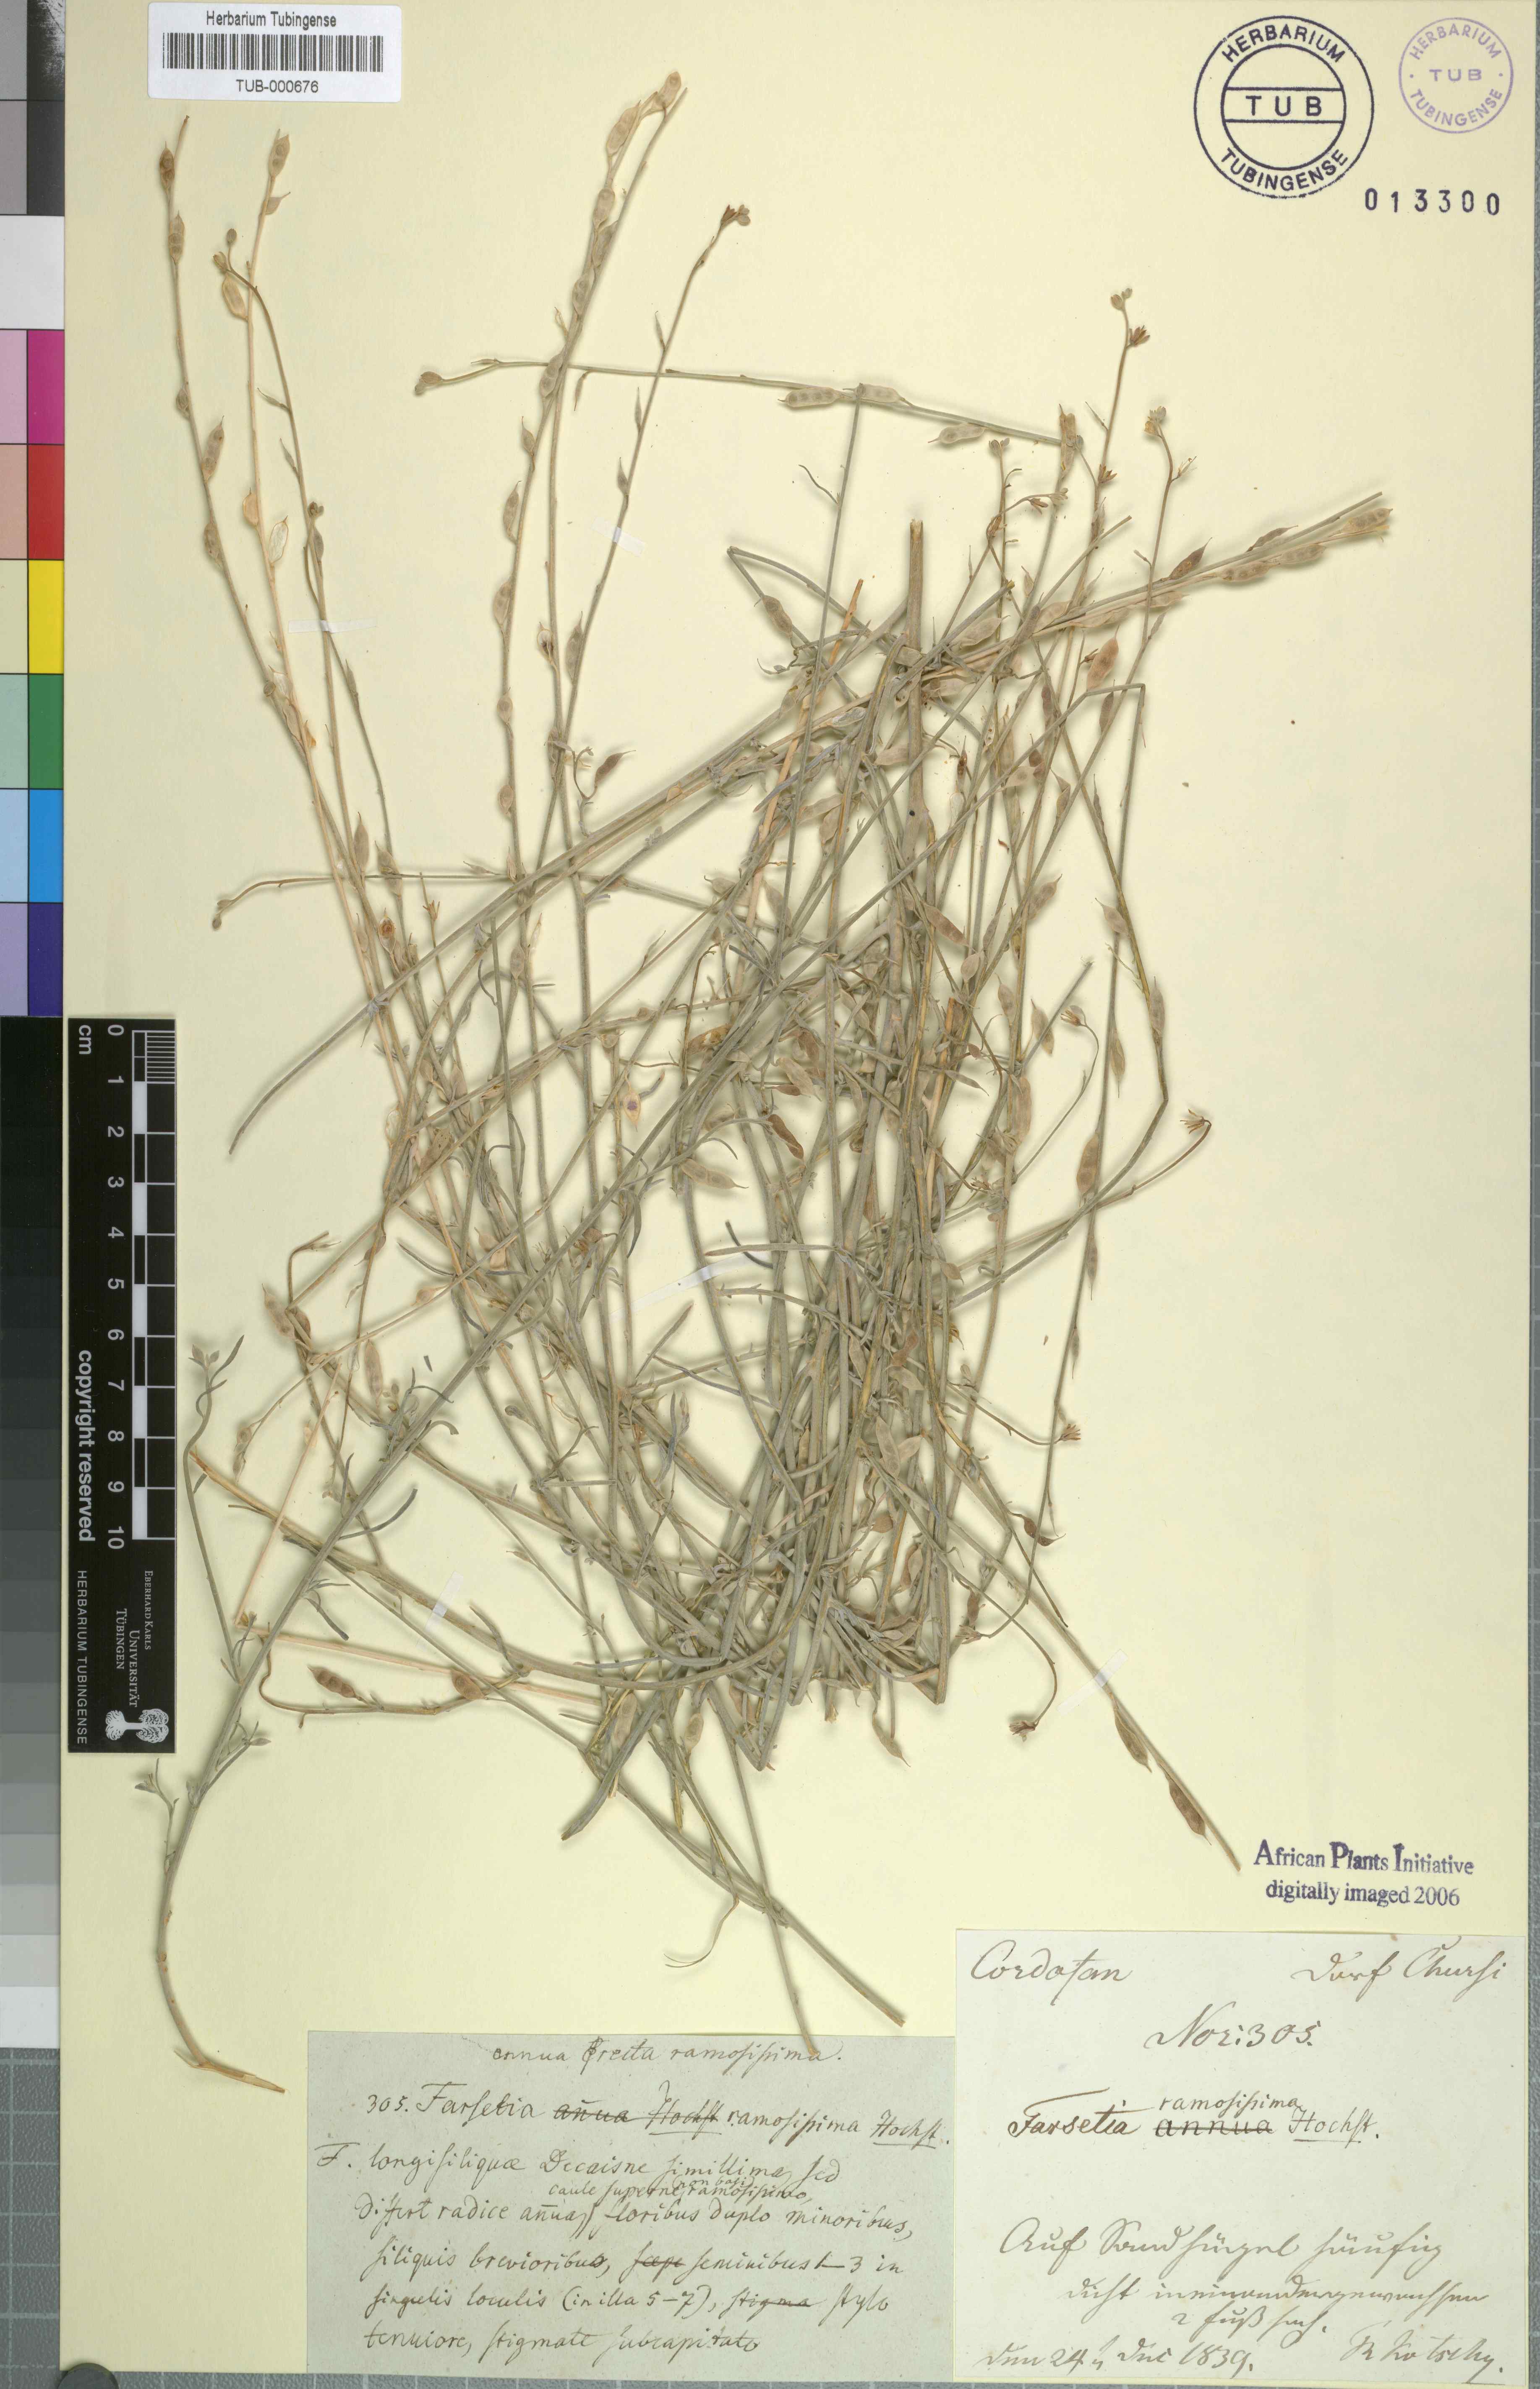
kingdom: Plantae
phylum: Tracheophyta
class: Magnoliopsida
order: Brassicales
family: Brassicaceae
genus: Farsetia
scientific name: Farsetia stylosa
